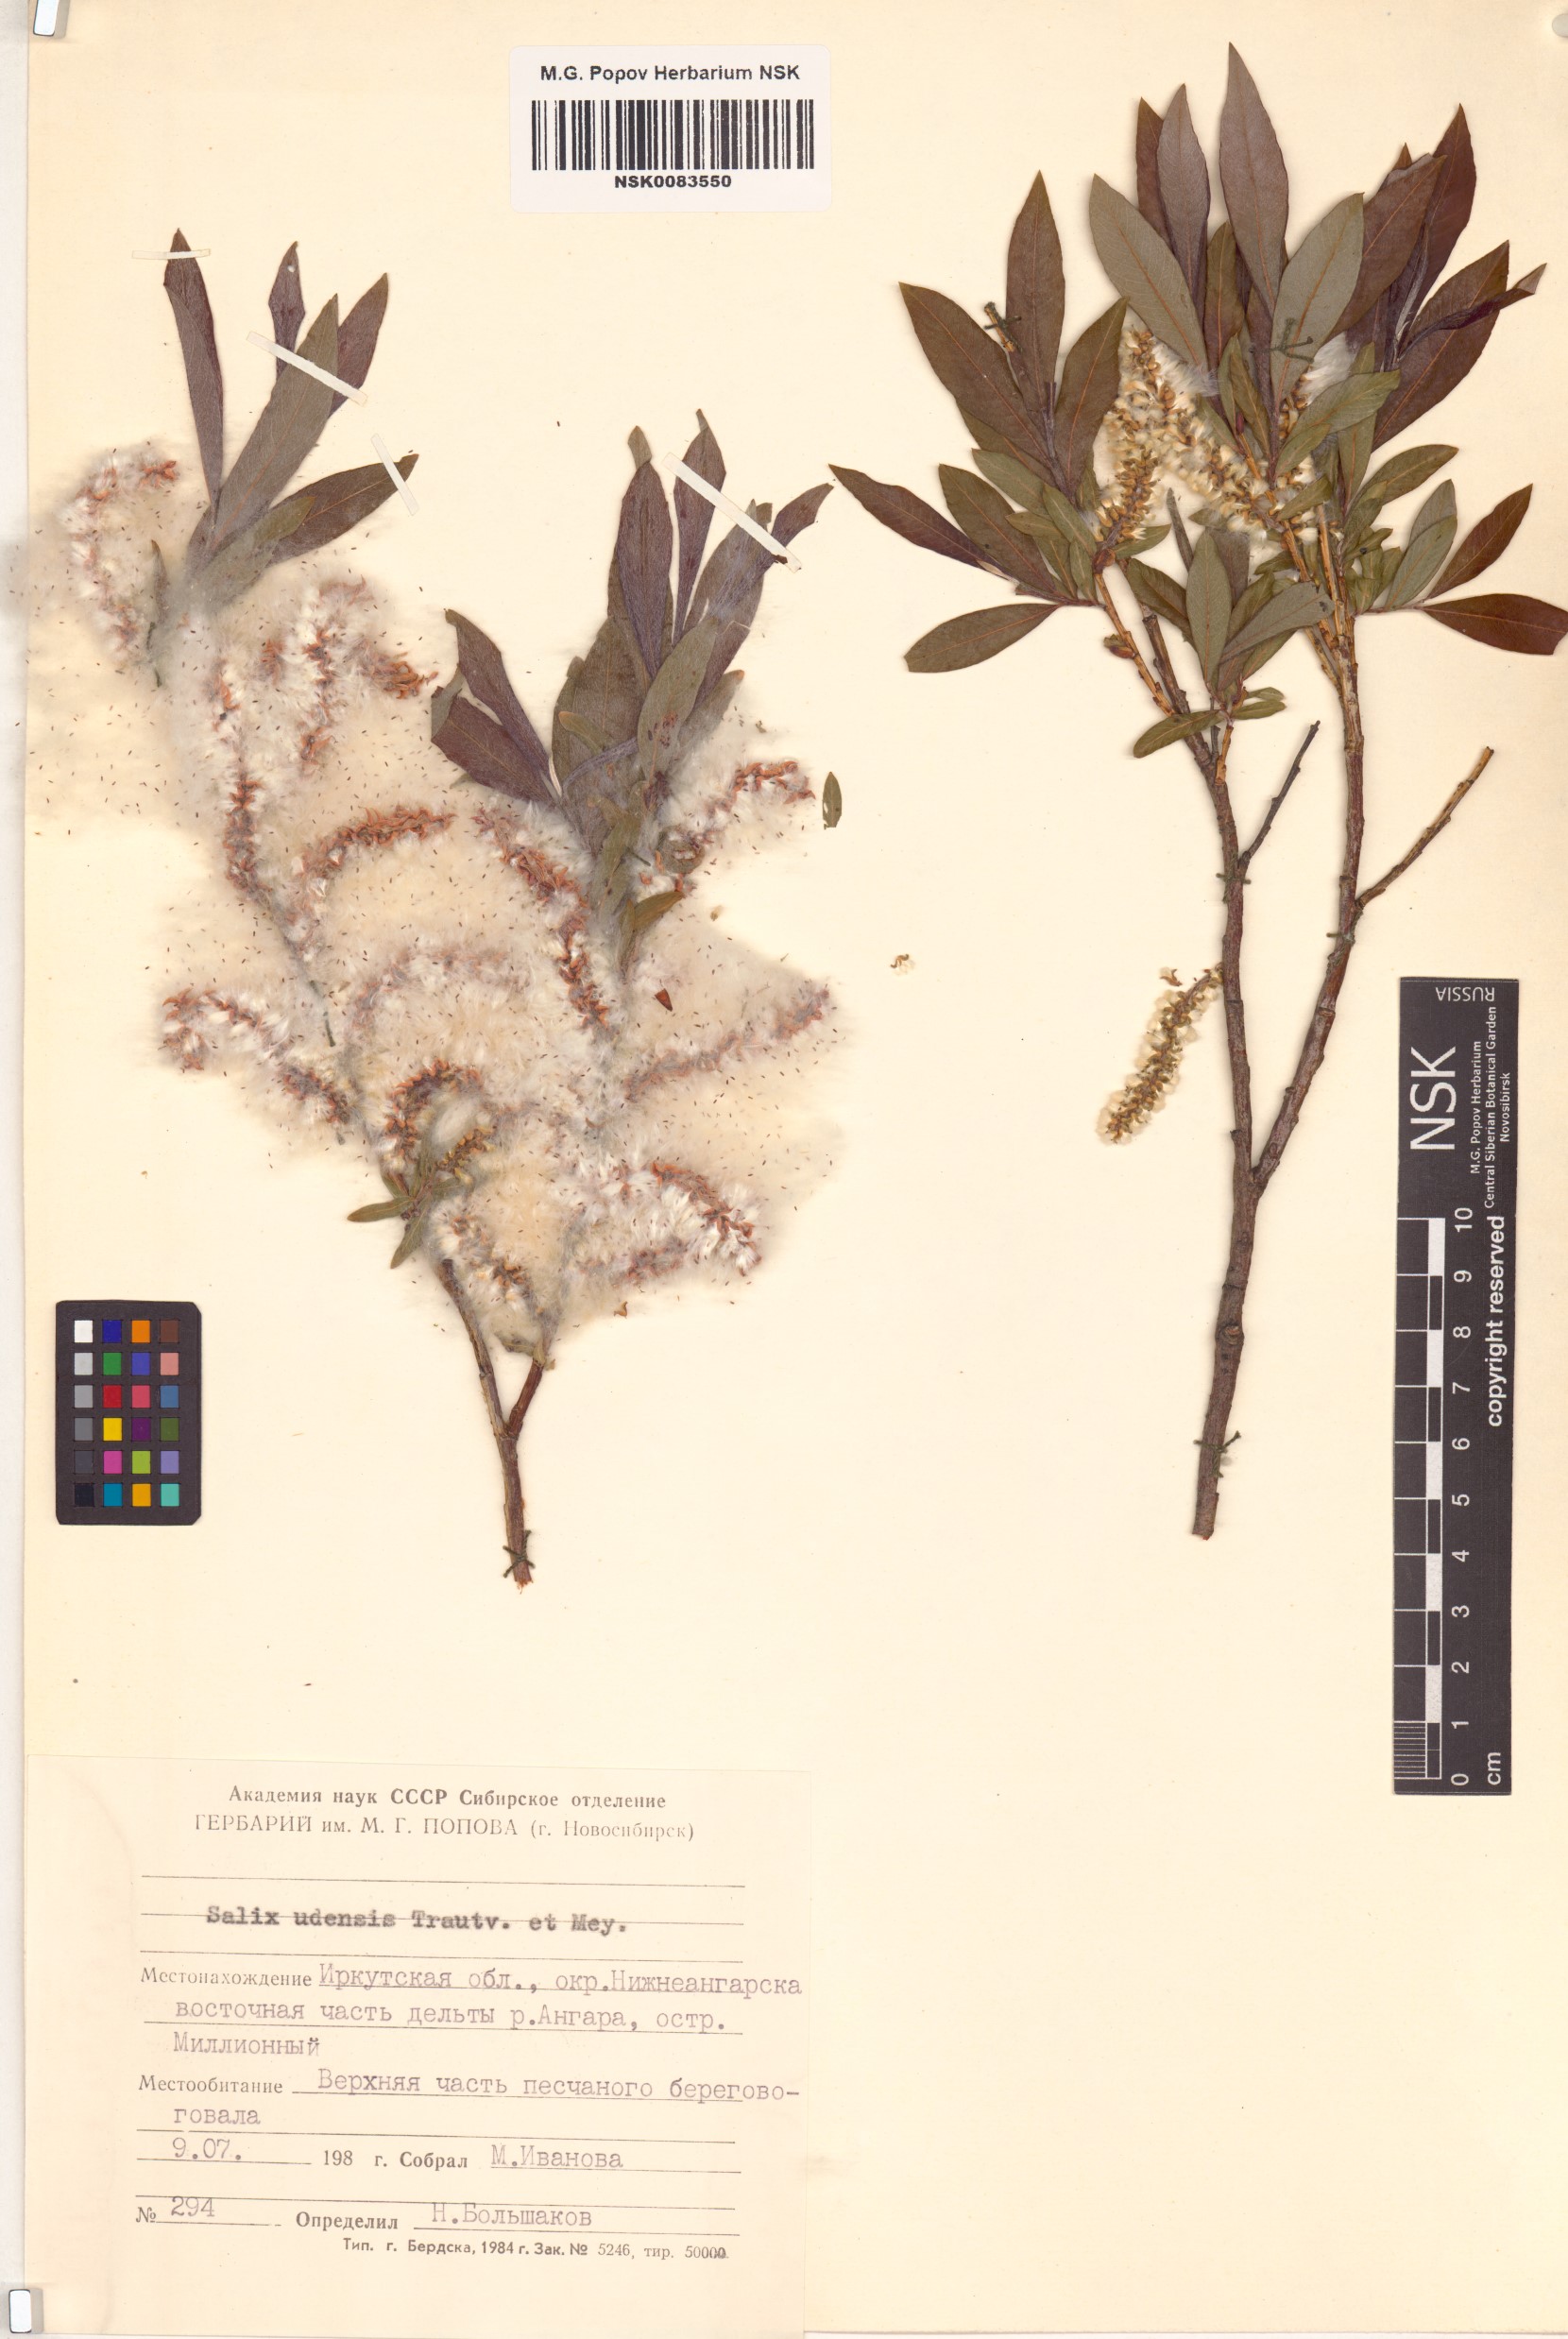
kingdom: Plantae
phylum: Tracheophyta
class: Magnoliopsida
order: Malpighiales
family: Salicaceae
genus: Salix
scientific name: Salix udensis
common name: Sachalin willow
